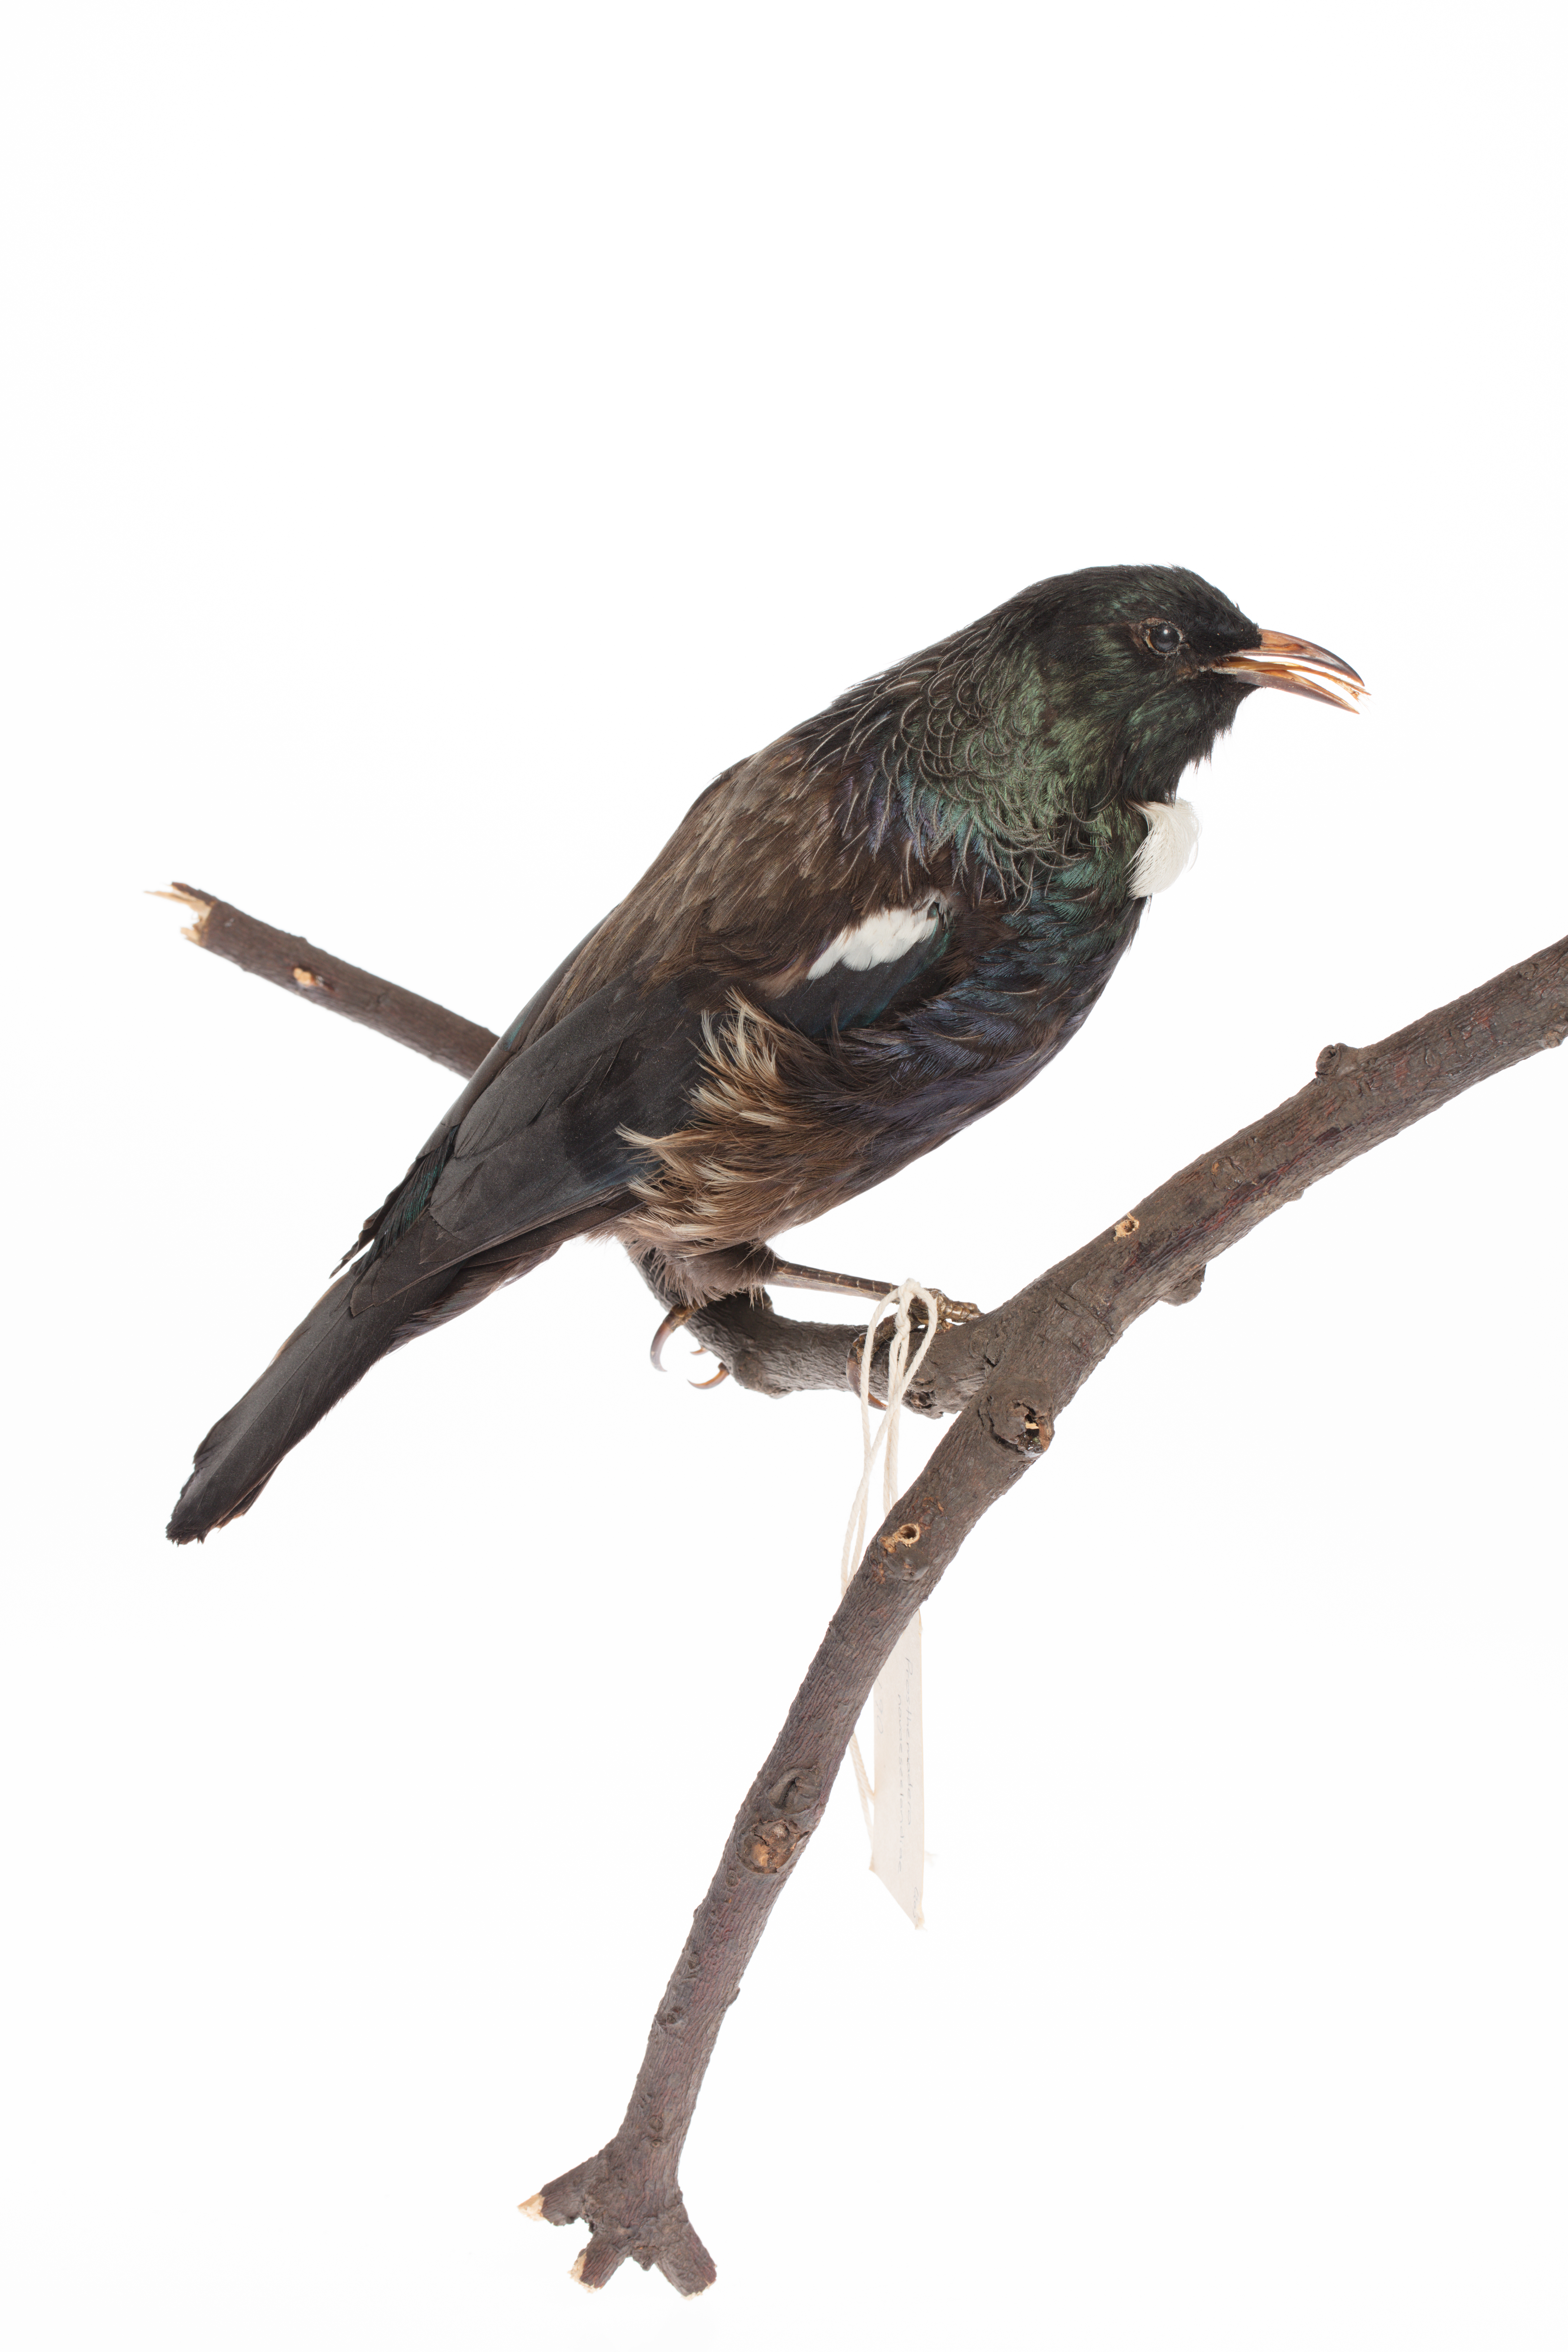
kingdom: Animalia
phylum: Chordata
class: Aves
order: Passeriformes
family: Meliphagidae
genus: Prosthemadera
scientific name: Prosthemadera novaeseelandiae
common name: Tui
